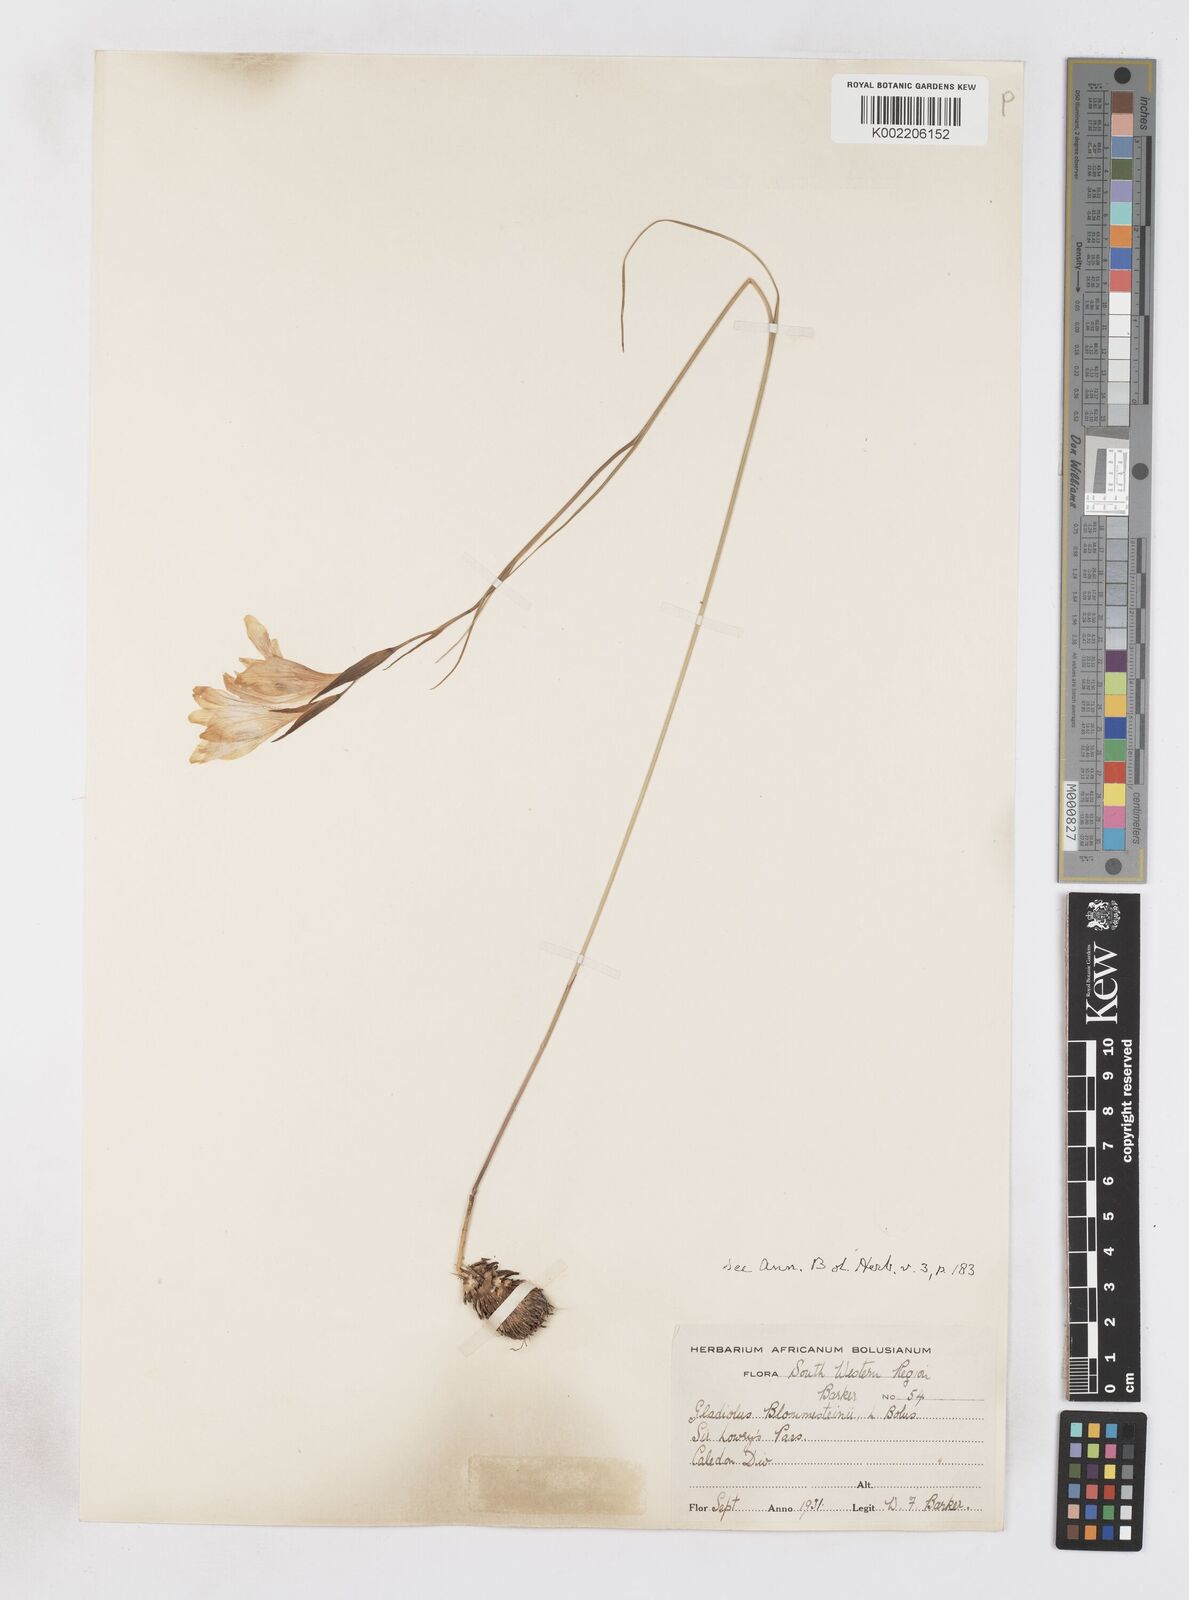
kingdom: Plantae
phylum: Tracheophyta
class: Liliopsida
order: Asparagales
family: Iridaceae
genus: Gladiolus
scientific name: Gladiolus blommesteinii
